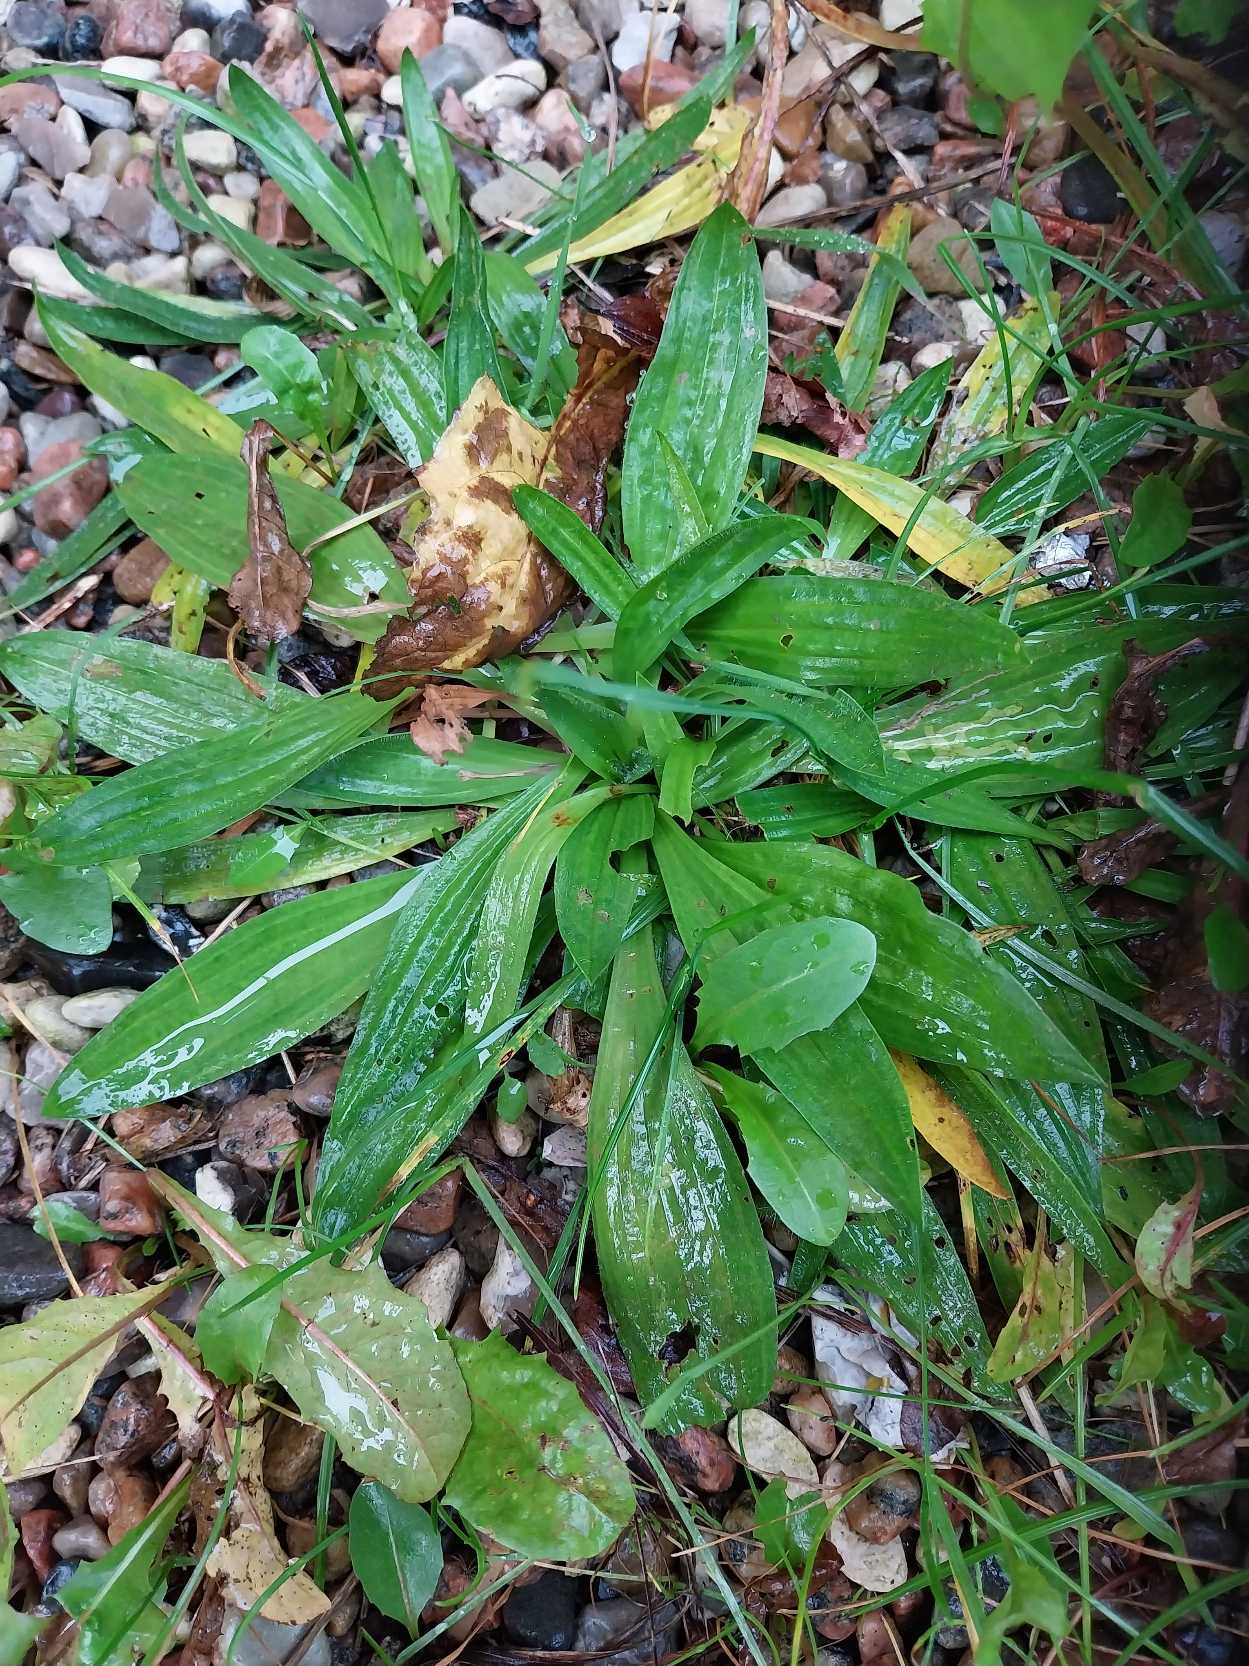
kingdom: Plantae
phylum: Tracheophyta
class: Magnoliopsida
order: Lamiales
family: Plantaginaceae
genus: Plantago
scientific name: Plantago lanceolata
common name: Lancet-vejbred
